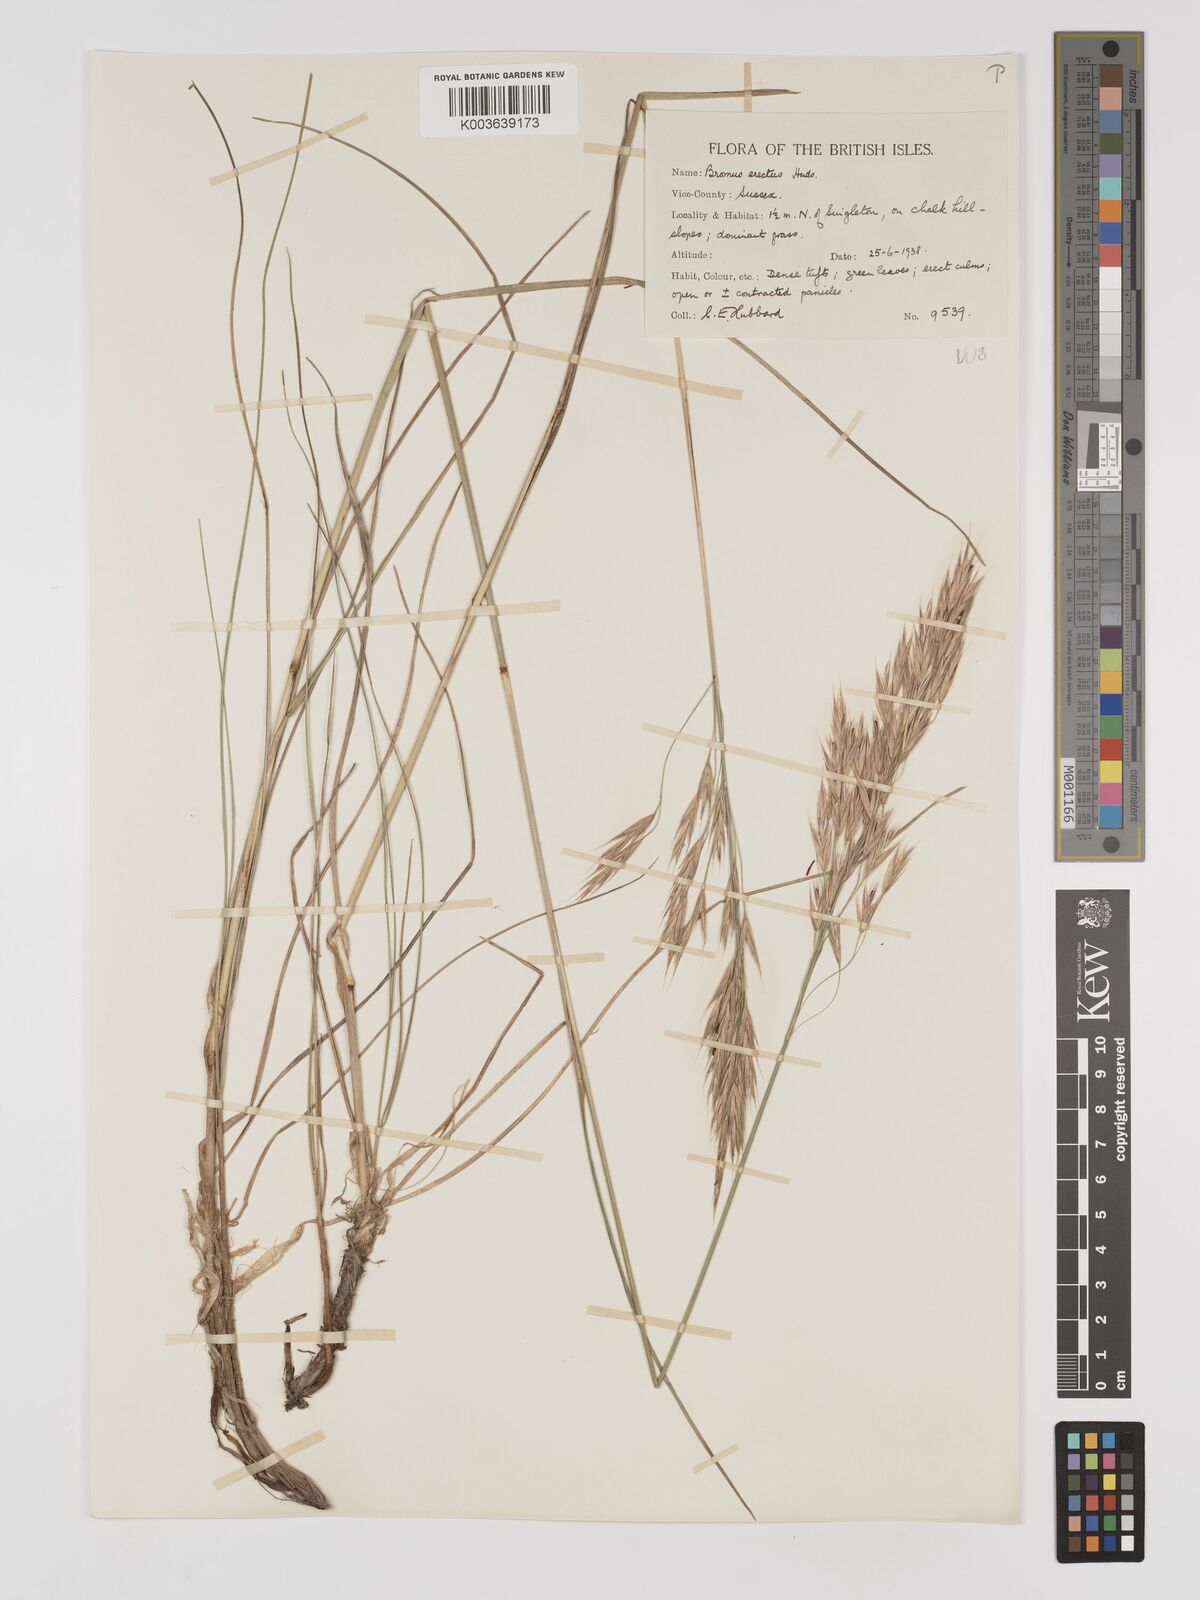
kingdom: Plantae
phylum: Tracheophyta
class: Liliopsida
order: Poales
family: Poaceae
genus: Bromus
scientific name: Bromus erectus
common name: Erect brome
